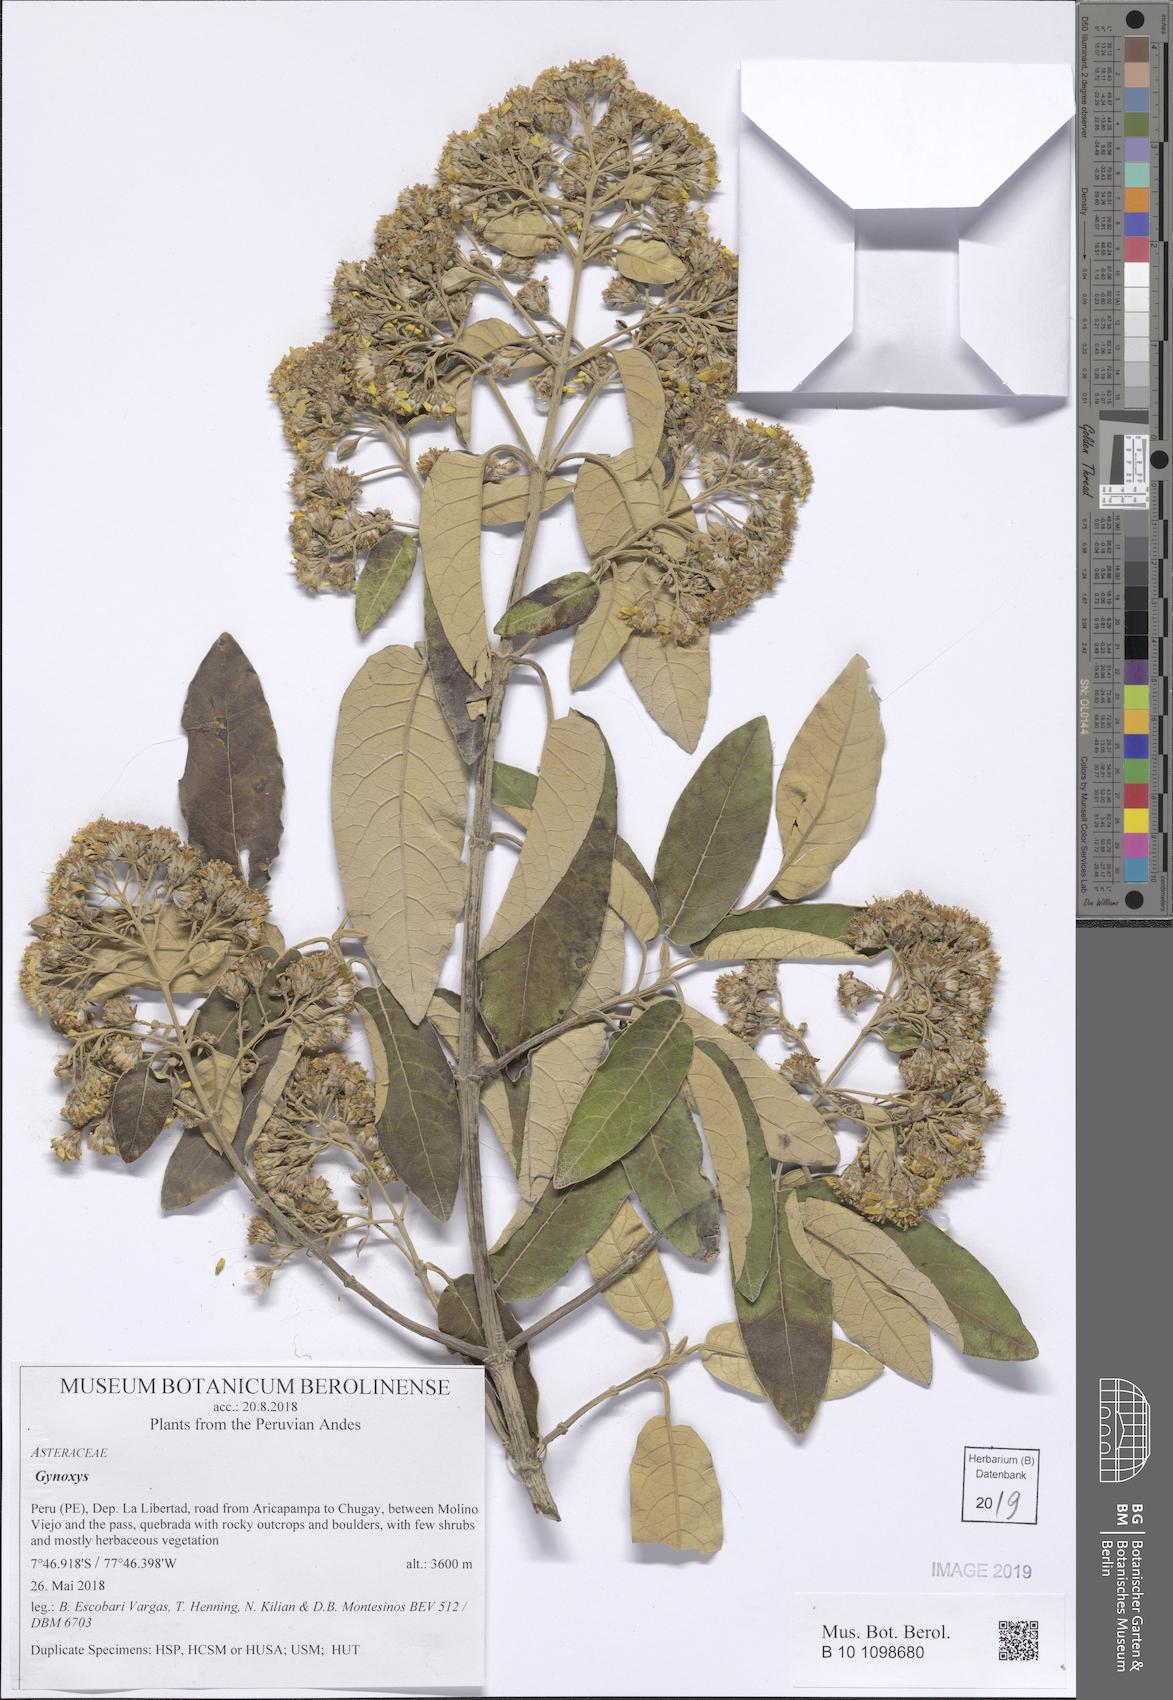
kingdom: Plantae
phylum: Tracheophyta
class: Magnoliopsida
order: Asterales
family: Asteraceae
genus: Gynoxys
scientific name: Gynoxys
